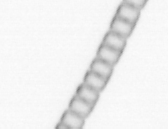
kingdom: Chromista
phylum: Ochrophyta
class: Bacillariophyceae
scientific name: Bacillariophyceae
